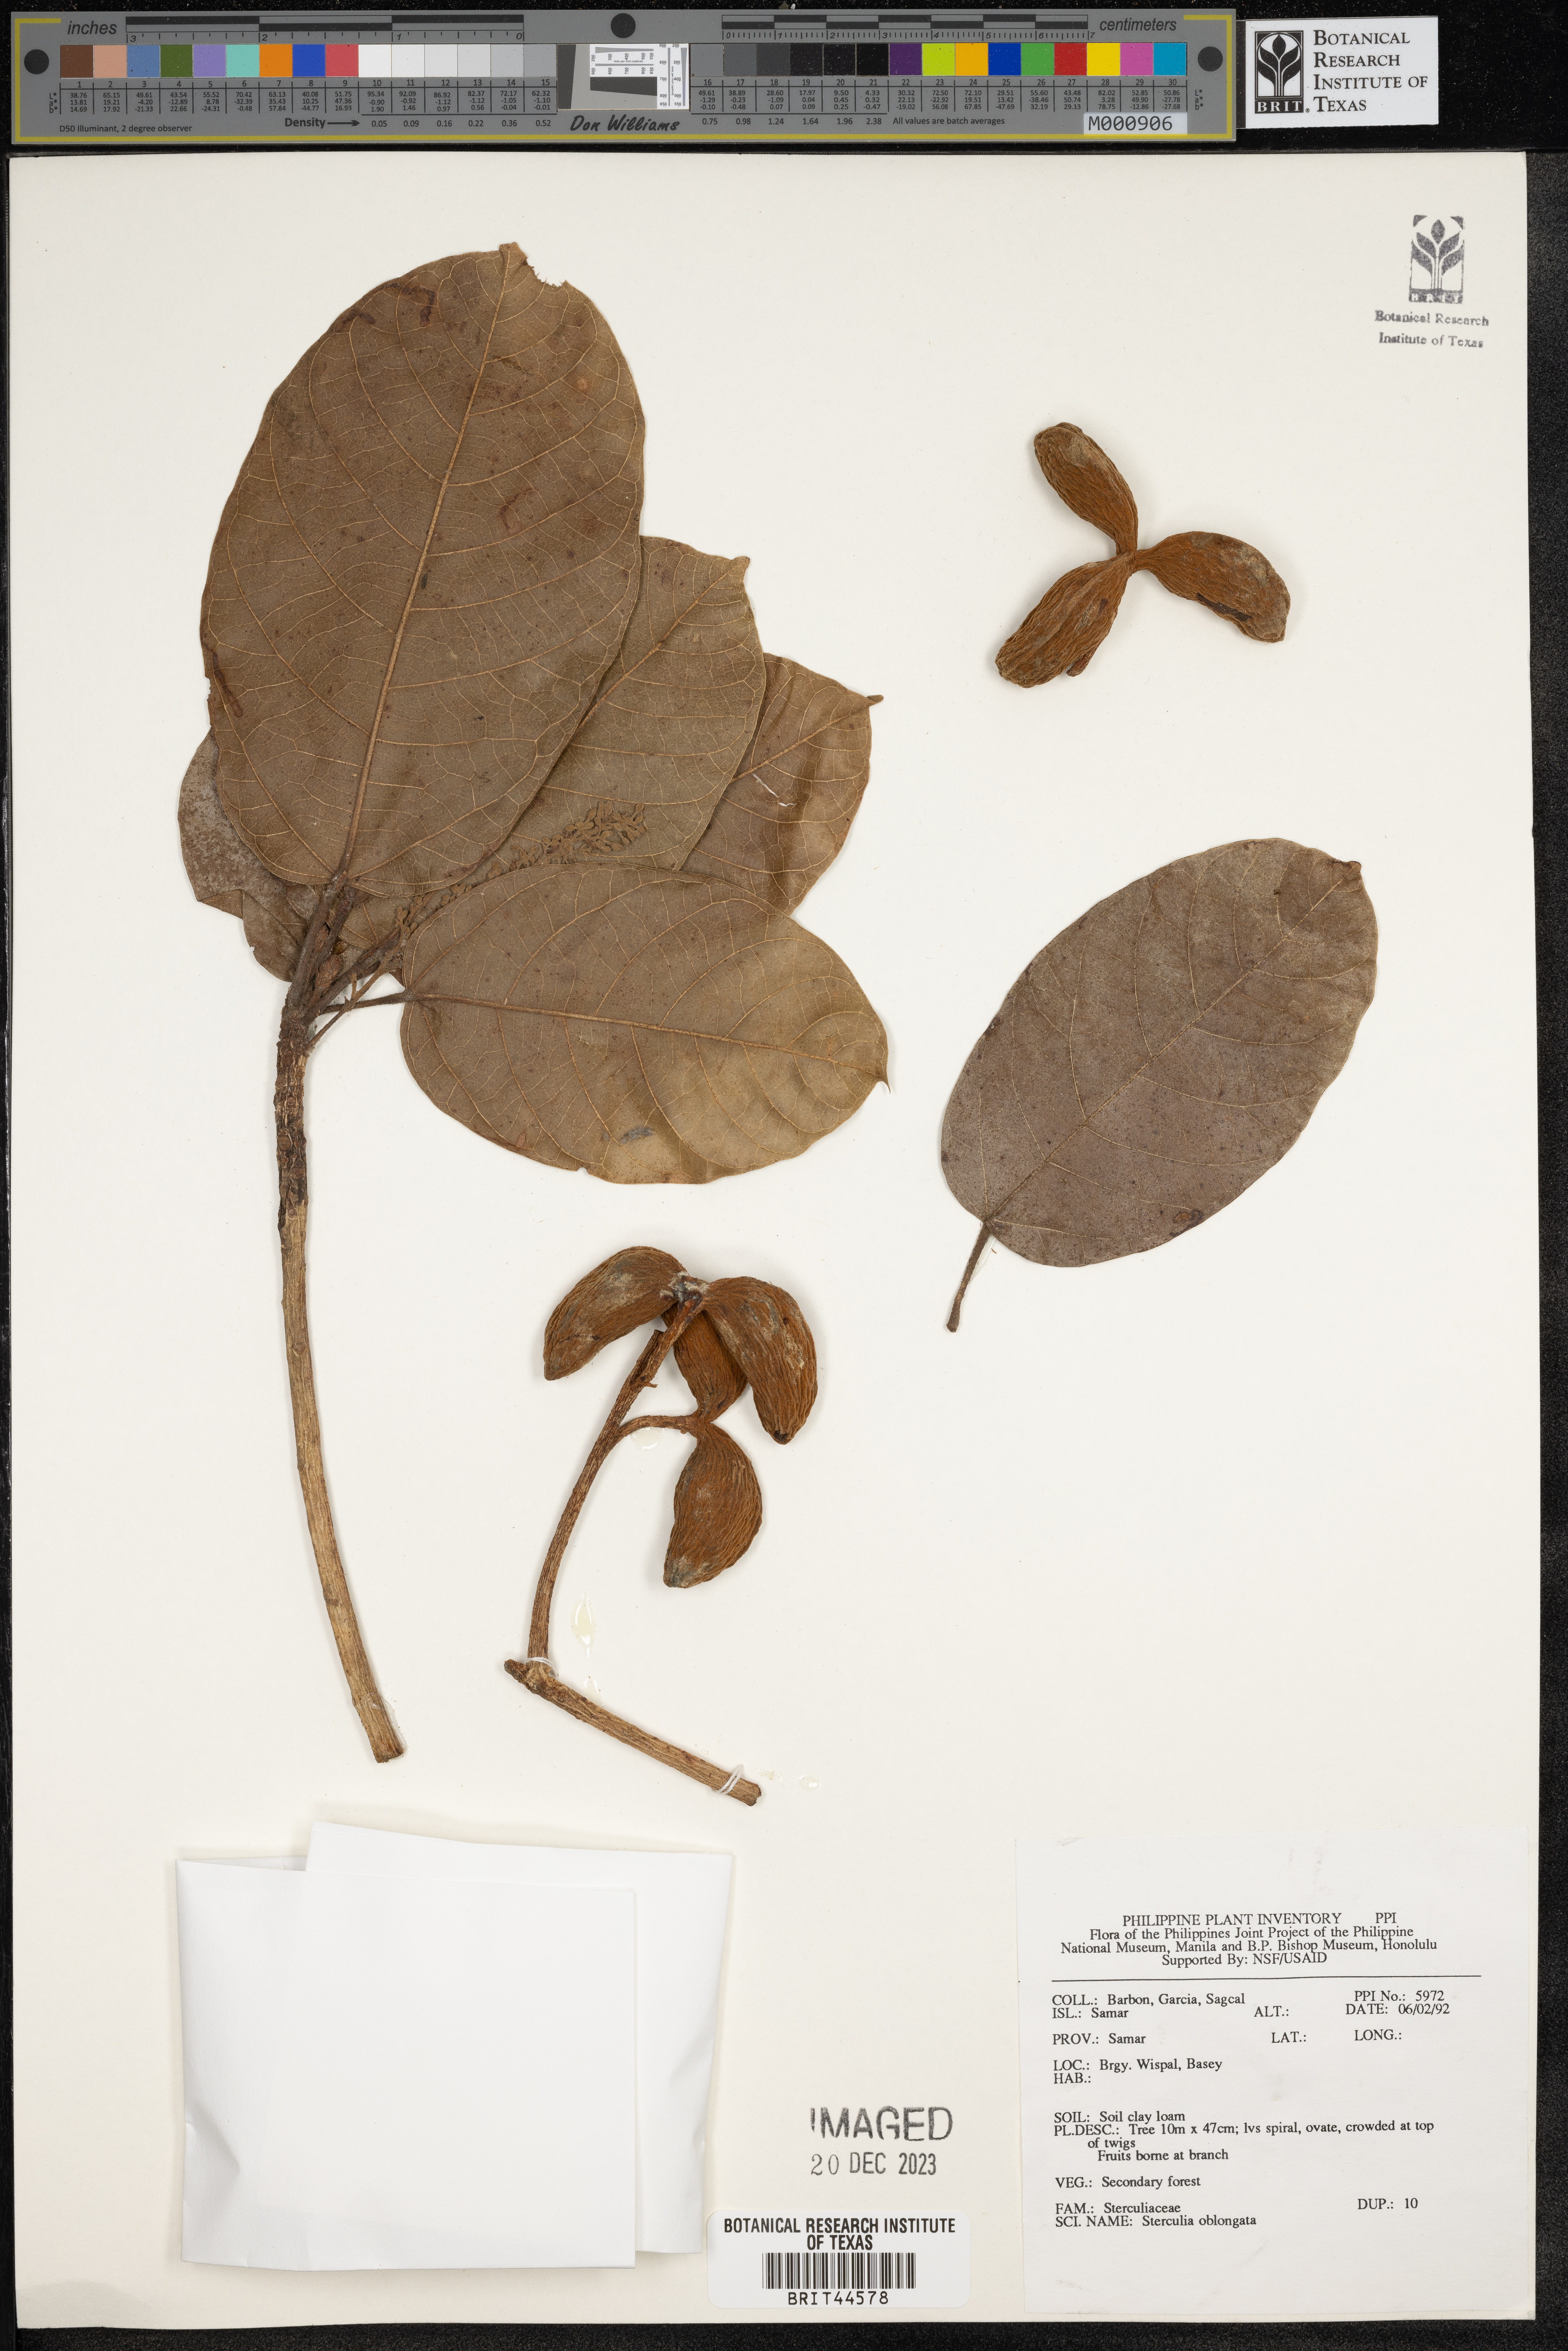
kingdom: Plantae
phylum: Tracheophyta
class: Magnoliopsida
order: Malvales
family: Malvaceae
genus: Sterculia
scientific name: Sterculia oblongata
